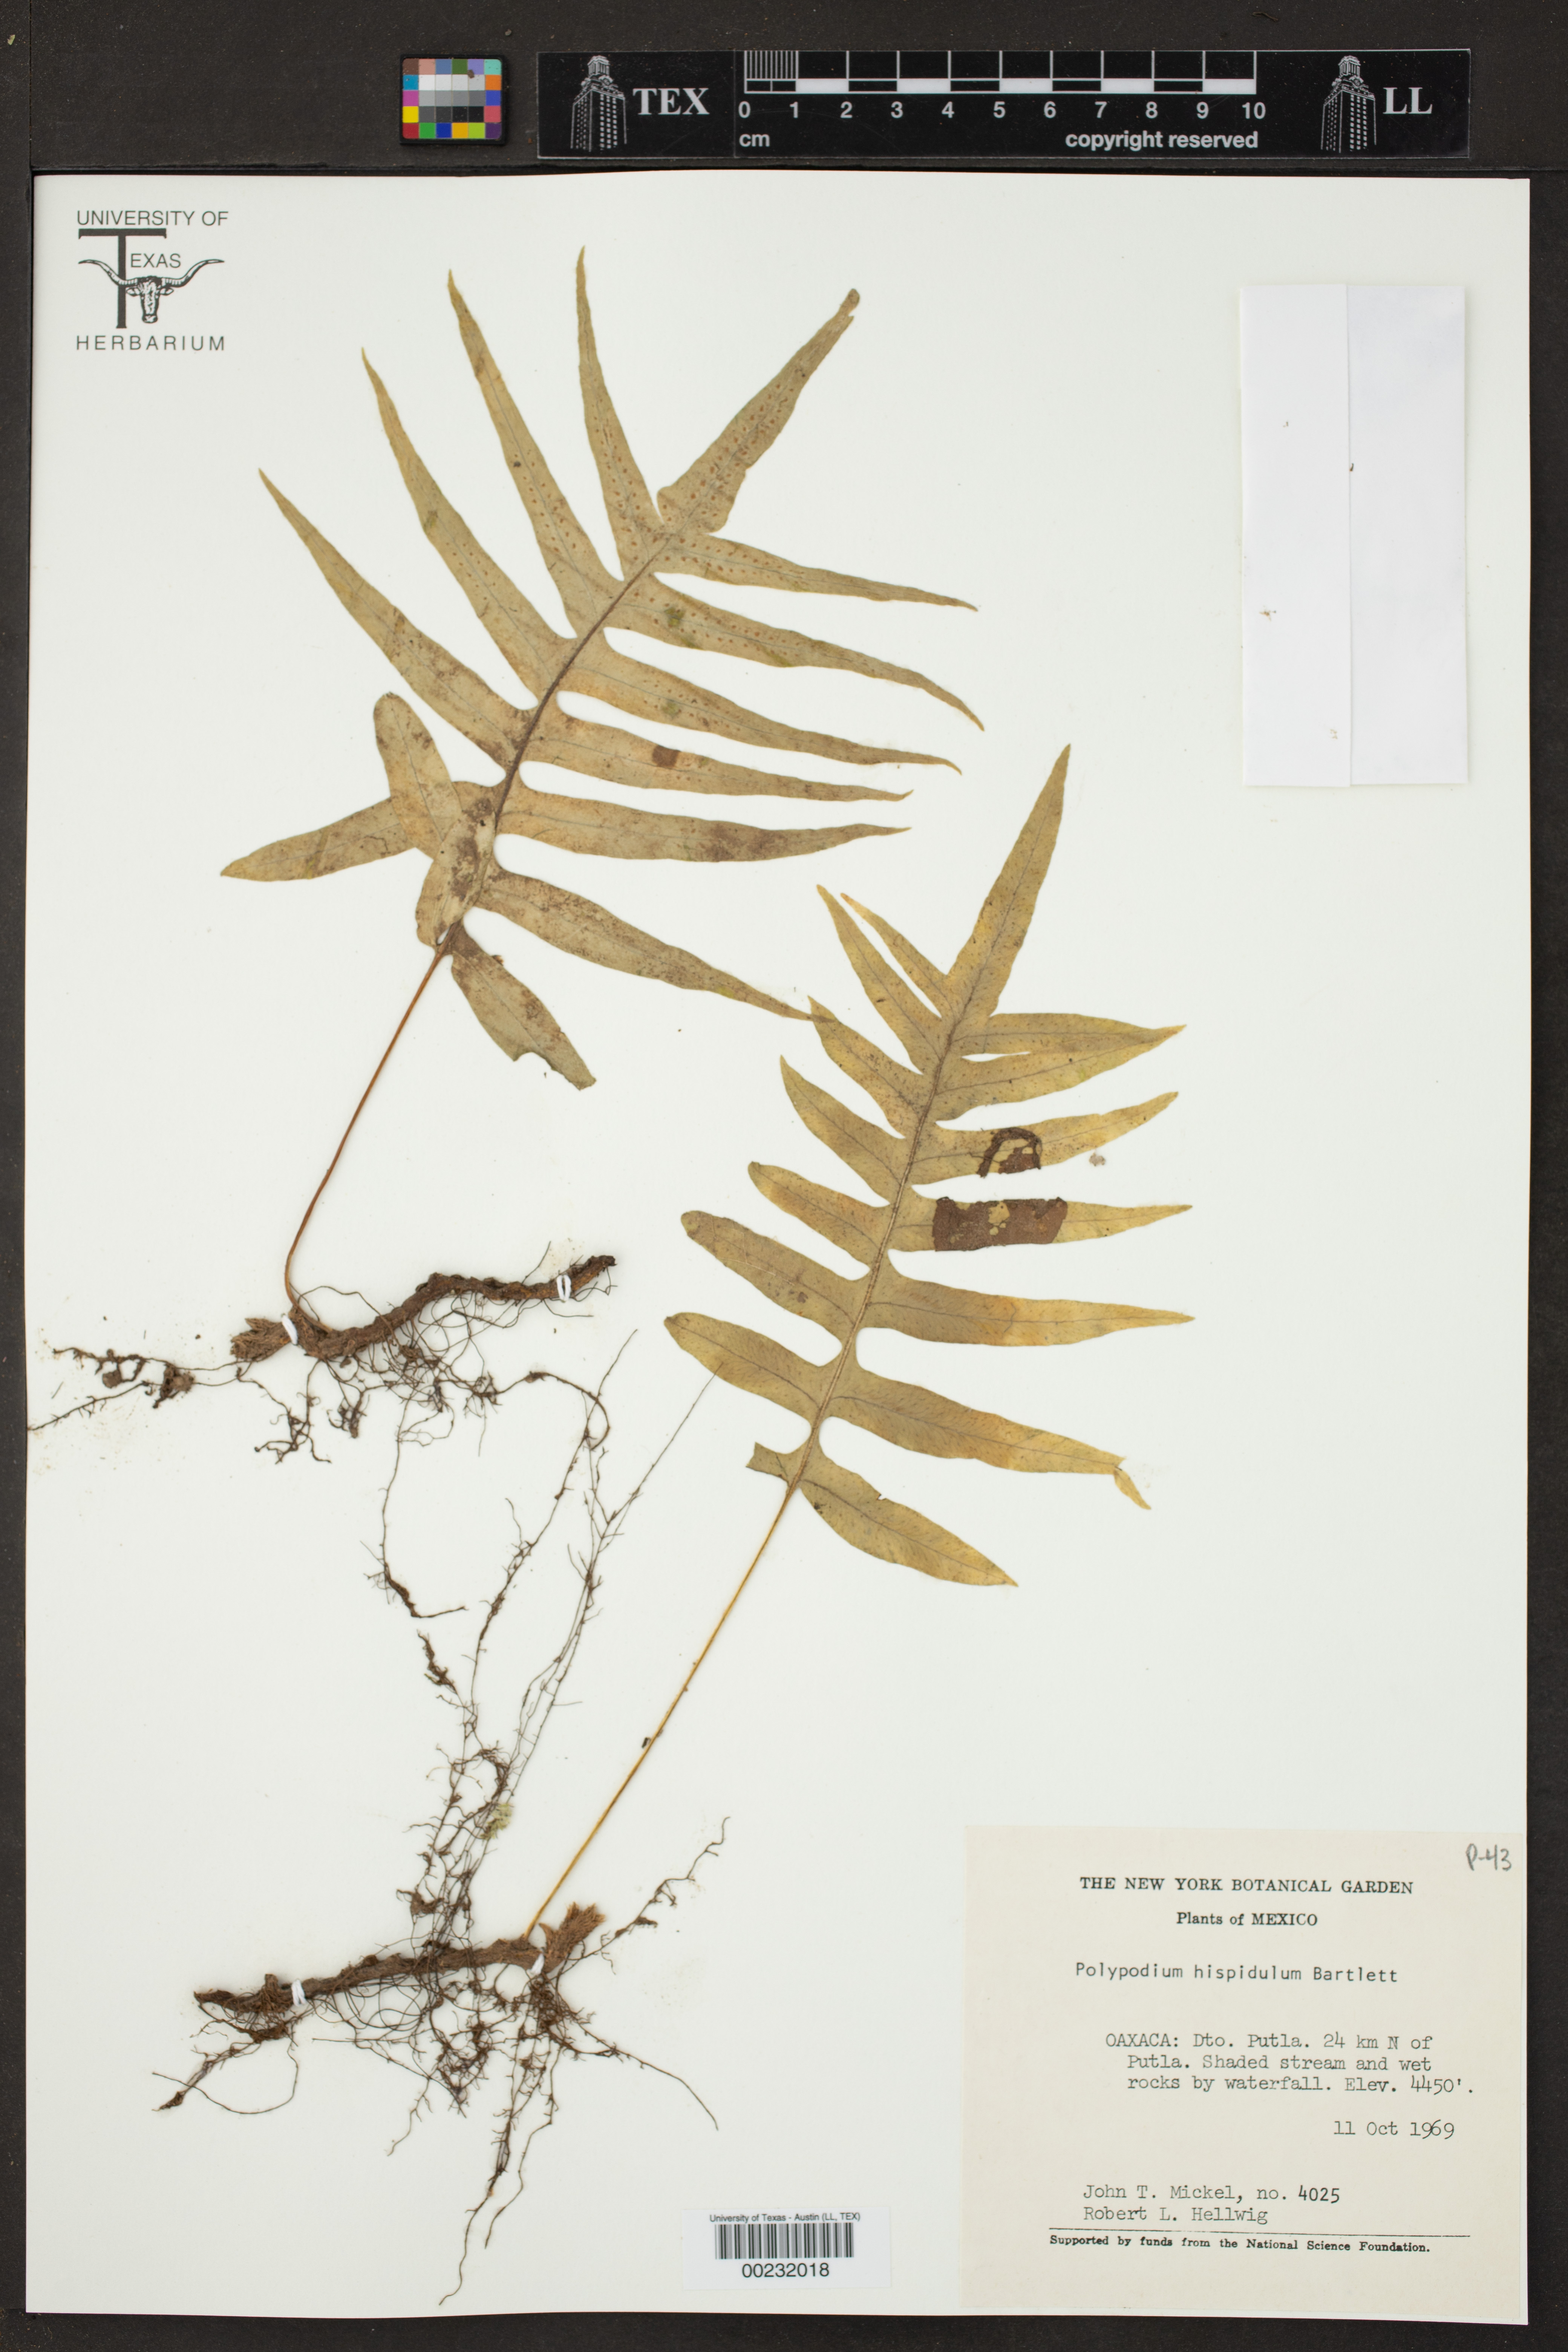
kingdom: Plantae
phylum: Tracheophyta
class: Polypodiopsida
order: Polypodiales
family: Polypodiaceae
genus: Polypodium
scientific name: Polypodium hispidulum
